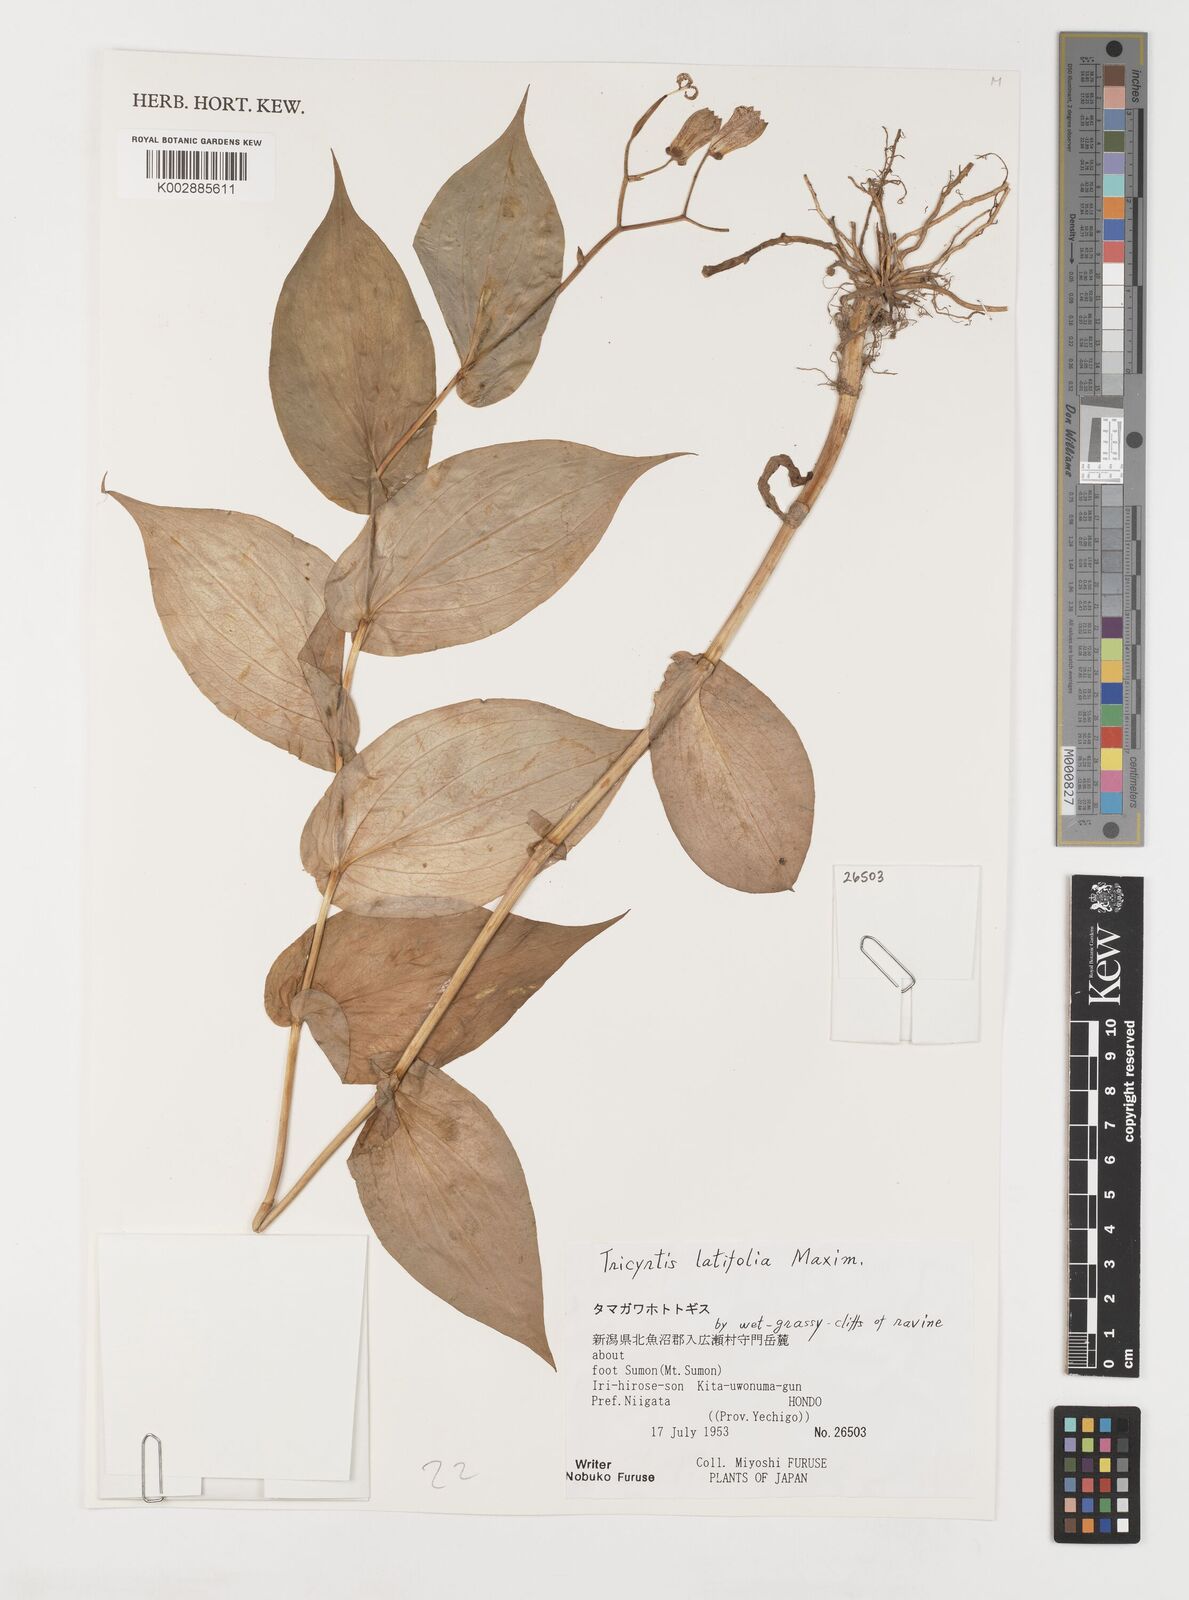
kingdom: Plantae
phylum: Tracheophyta
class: Liliopsida
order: Liliales
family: Liliaceae
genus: Tricyrtis
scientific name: Tricyrtis latifolia
